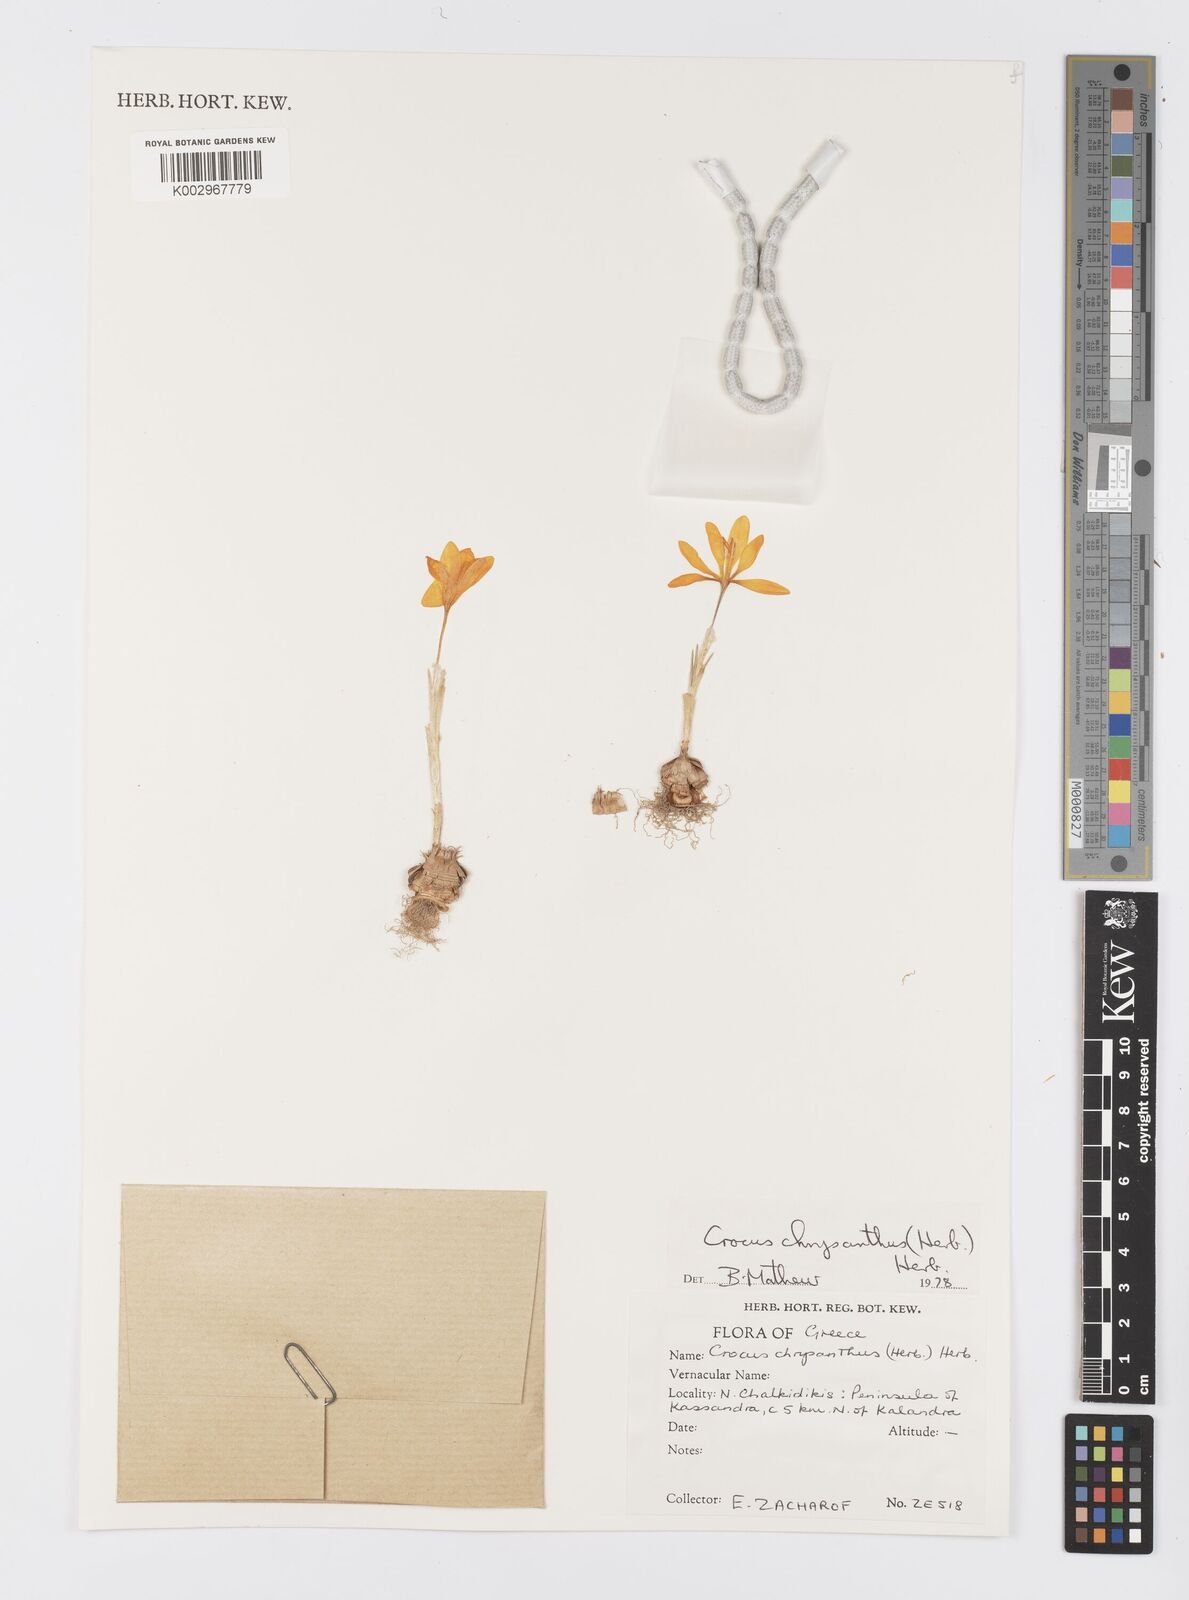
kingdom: Plantae
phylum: Tracheophyta
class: Liliopsida
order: Asparagales
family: Iridaceae
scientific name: Iridaceae
